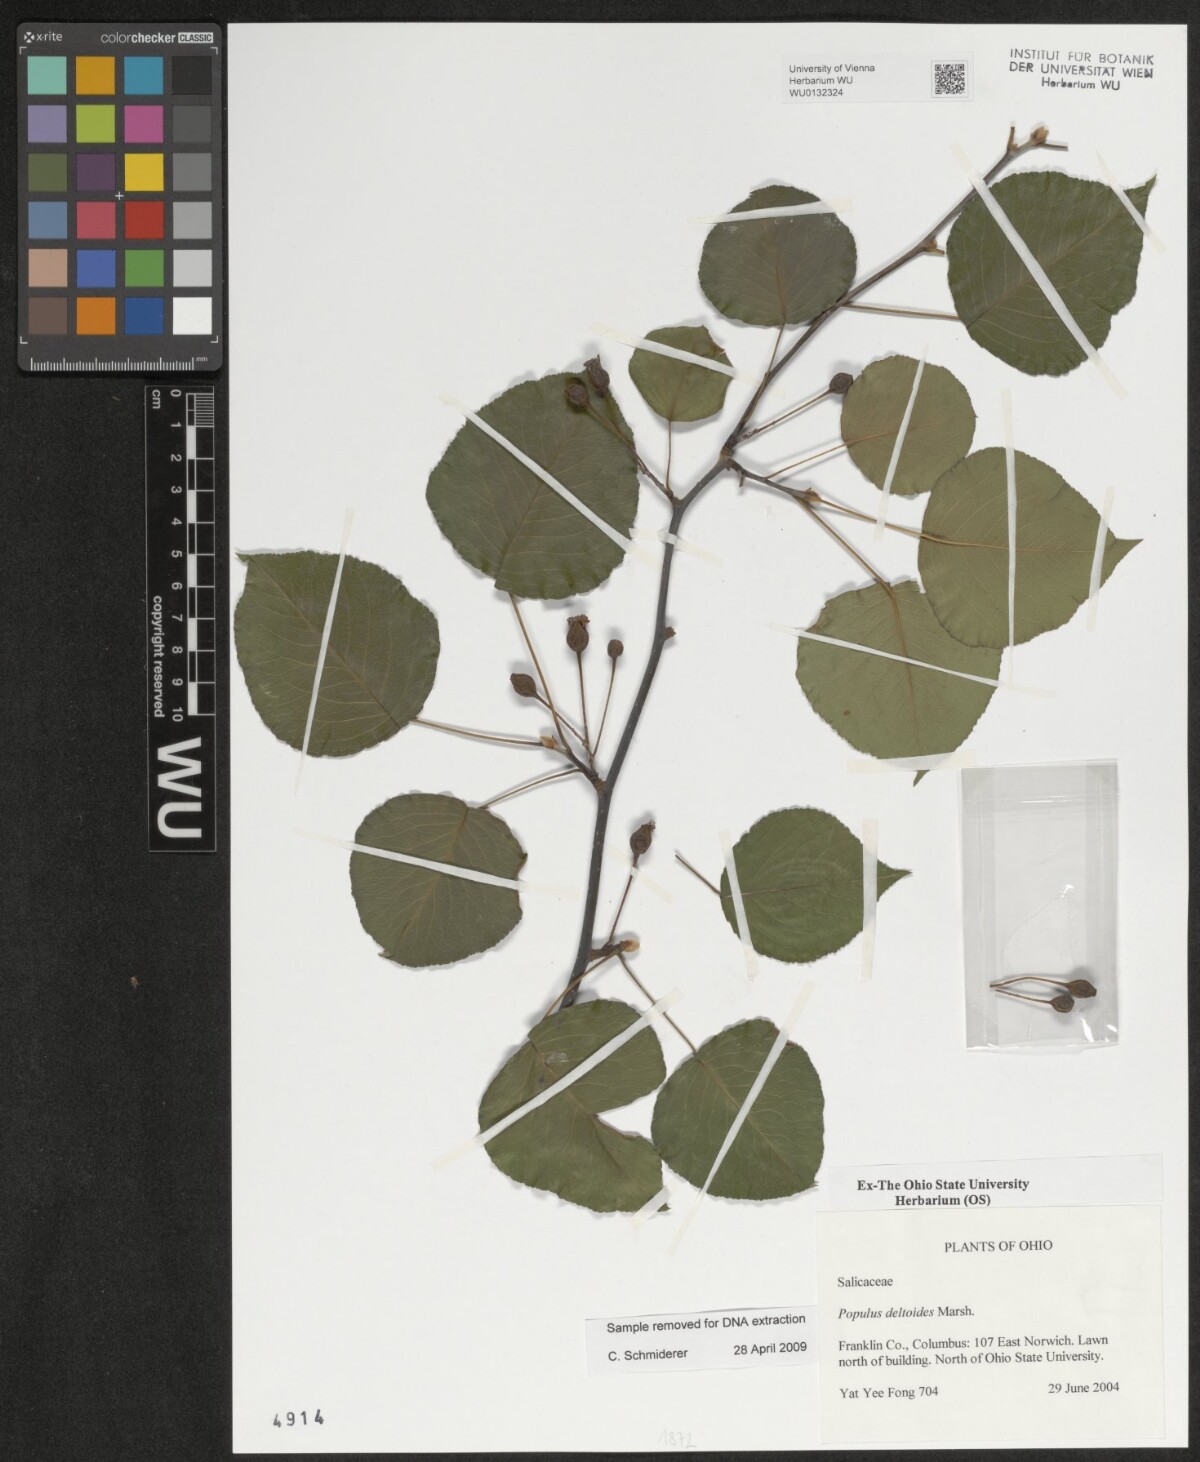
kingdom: Plantae
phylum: Tracheophyta
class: Magnoliopsida
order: Malpighiales
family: Salicaceae
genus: Populus
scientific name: Populus deltoides
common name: Eastern cottonwood
